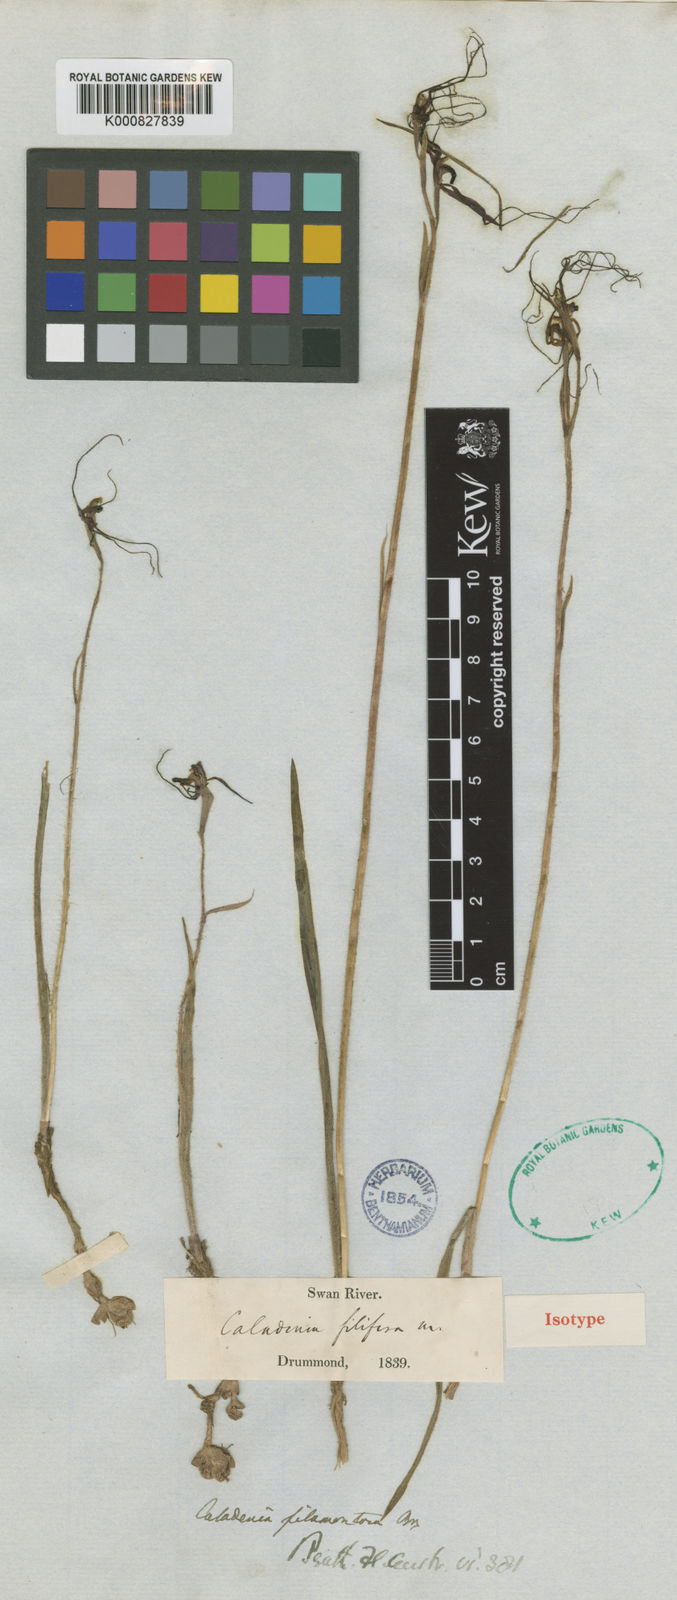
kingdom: Plantae
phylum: Tracheophyta
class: Liliopsida
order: Asparagales
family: Orchidaceae
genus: Caladenia
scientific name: Caladenia filifera
